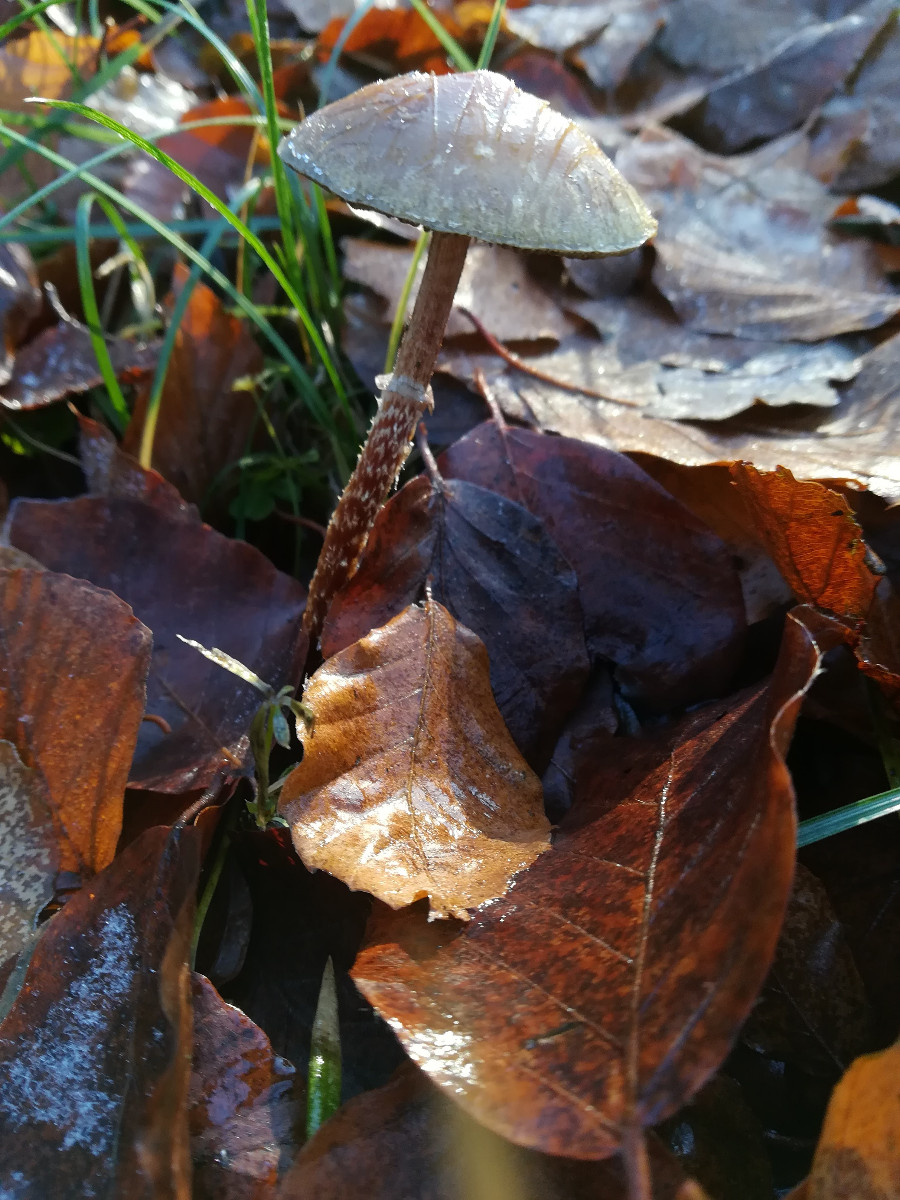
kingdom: Fungi
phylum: Basidiomycota
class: Agaricomycetes
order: Agaricales
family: Strophariaceae
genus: Leratiomyces
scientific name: Leratiomyces squamosus
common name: skællet bredblad
